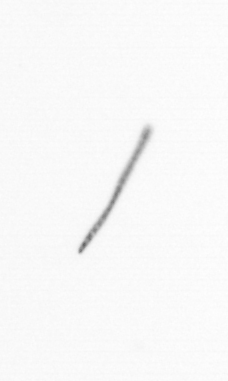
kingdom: Chromista
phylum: Ochrophyta
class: Bacillariophyceae
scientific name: Bacillariophyceae
